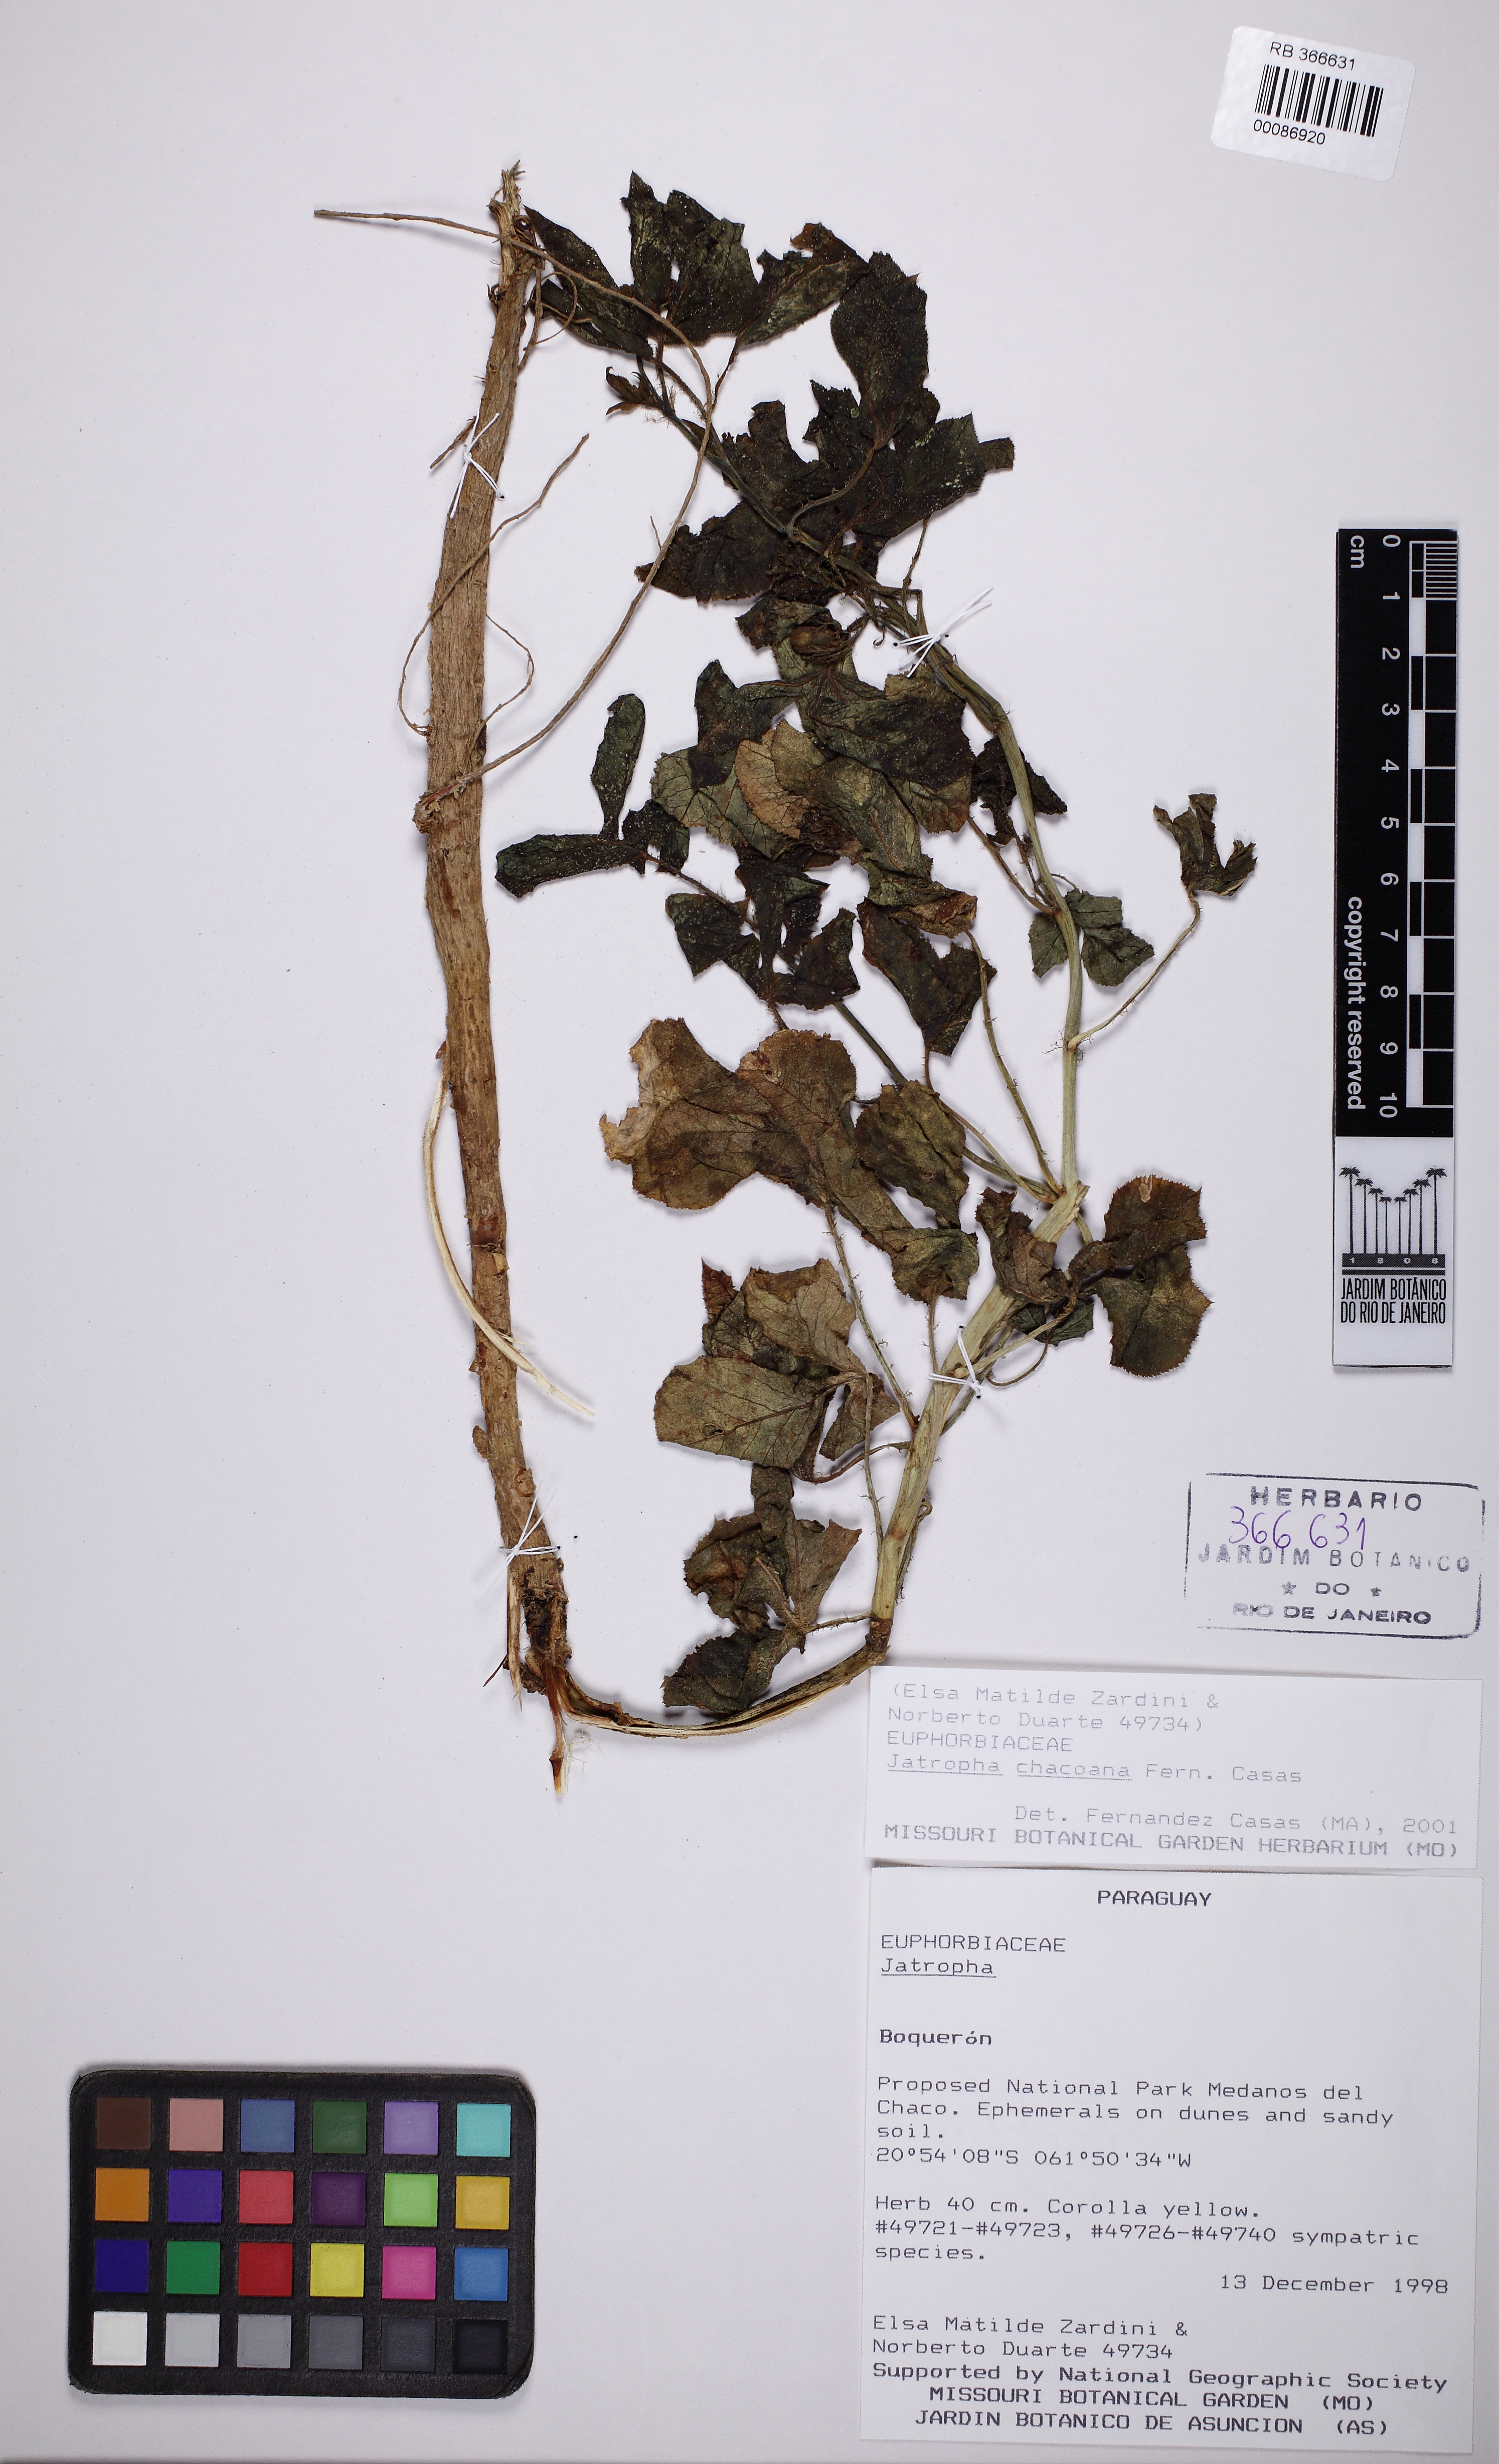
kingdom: Plantae
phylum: Tracheophyta
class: Magnoliopsida
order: Malpighiales
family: Euphorbiaceae
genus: Jatropha
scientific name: Jatropha peiranoi
